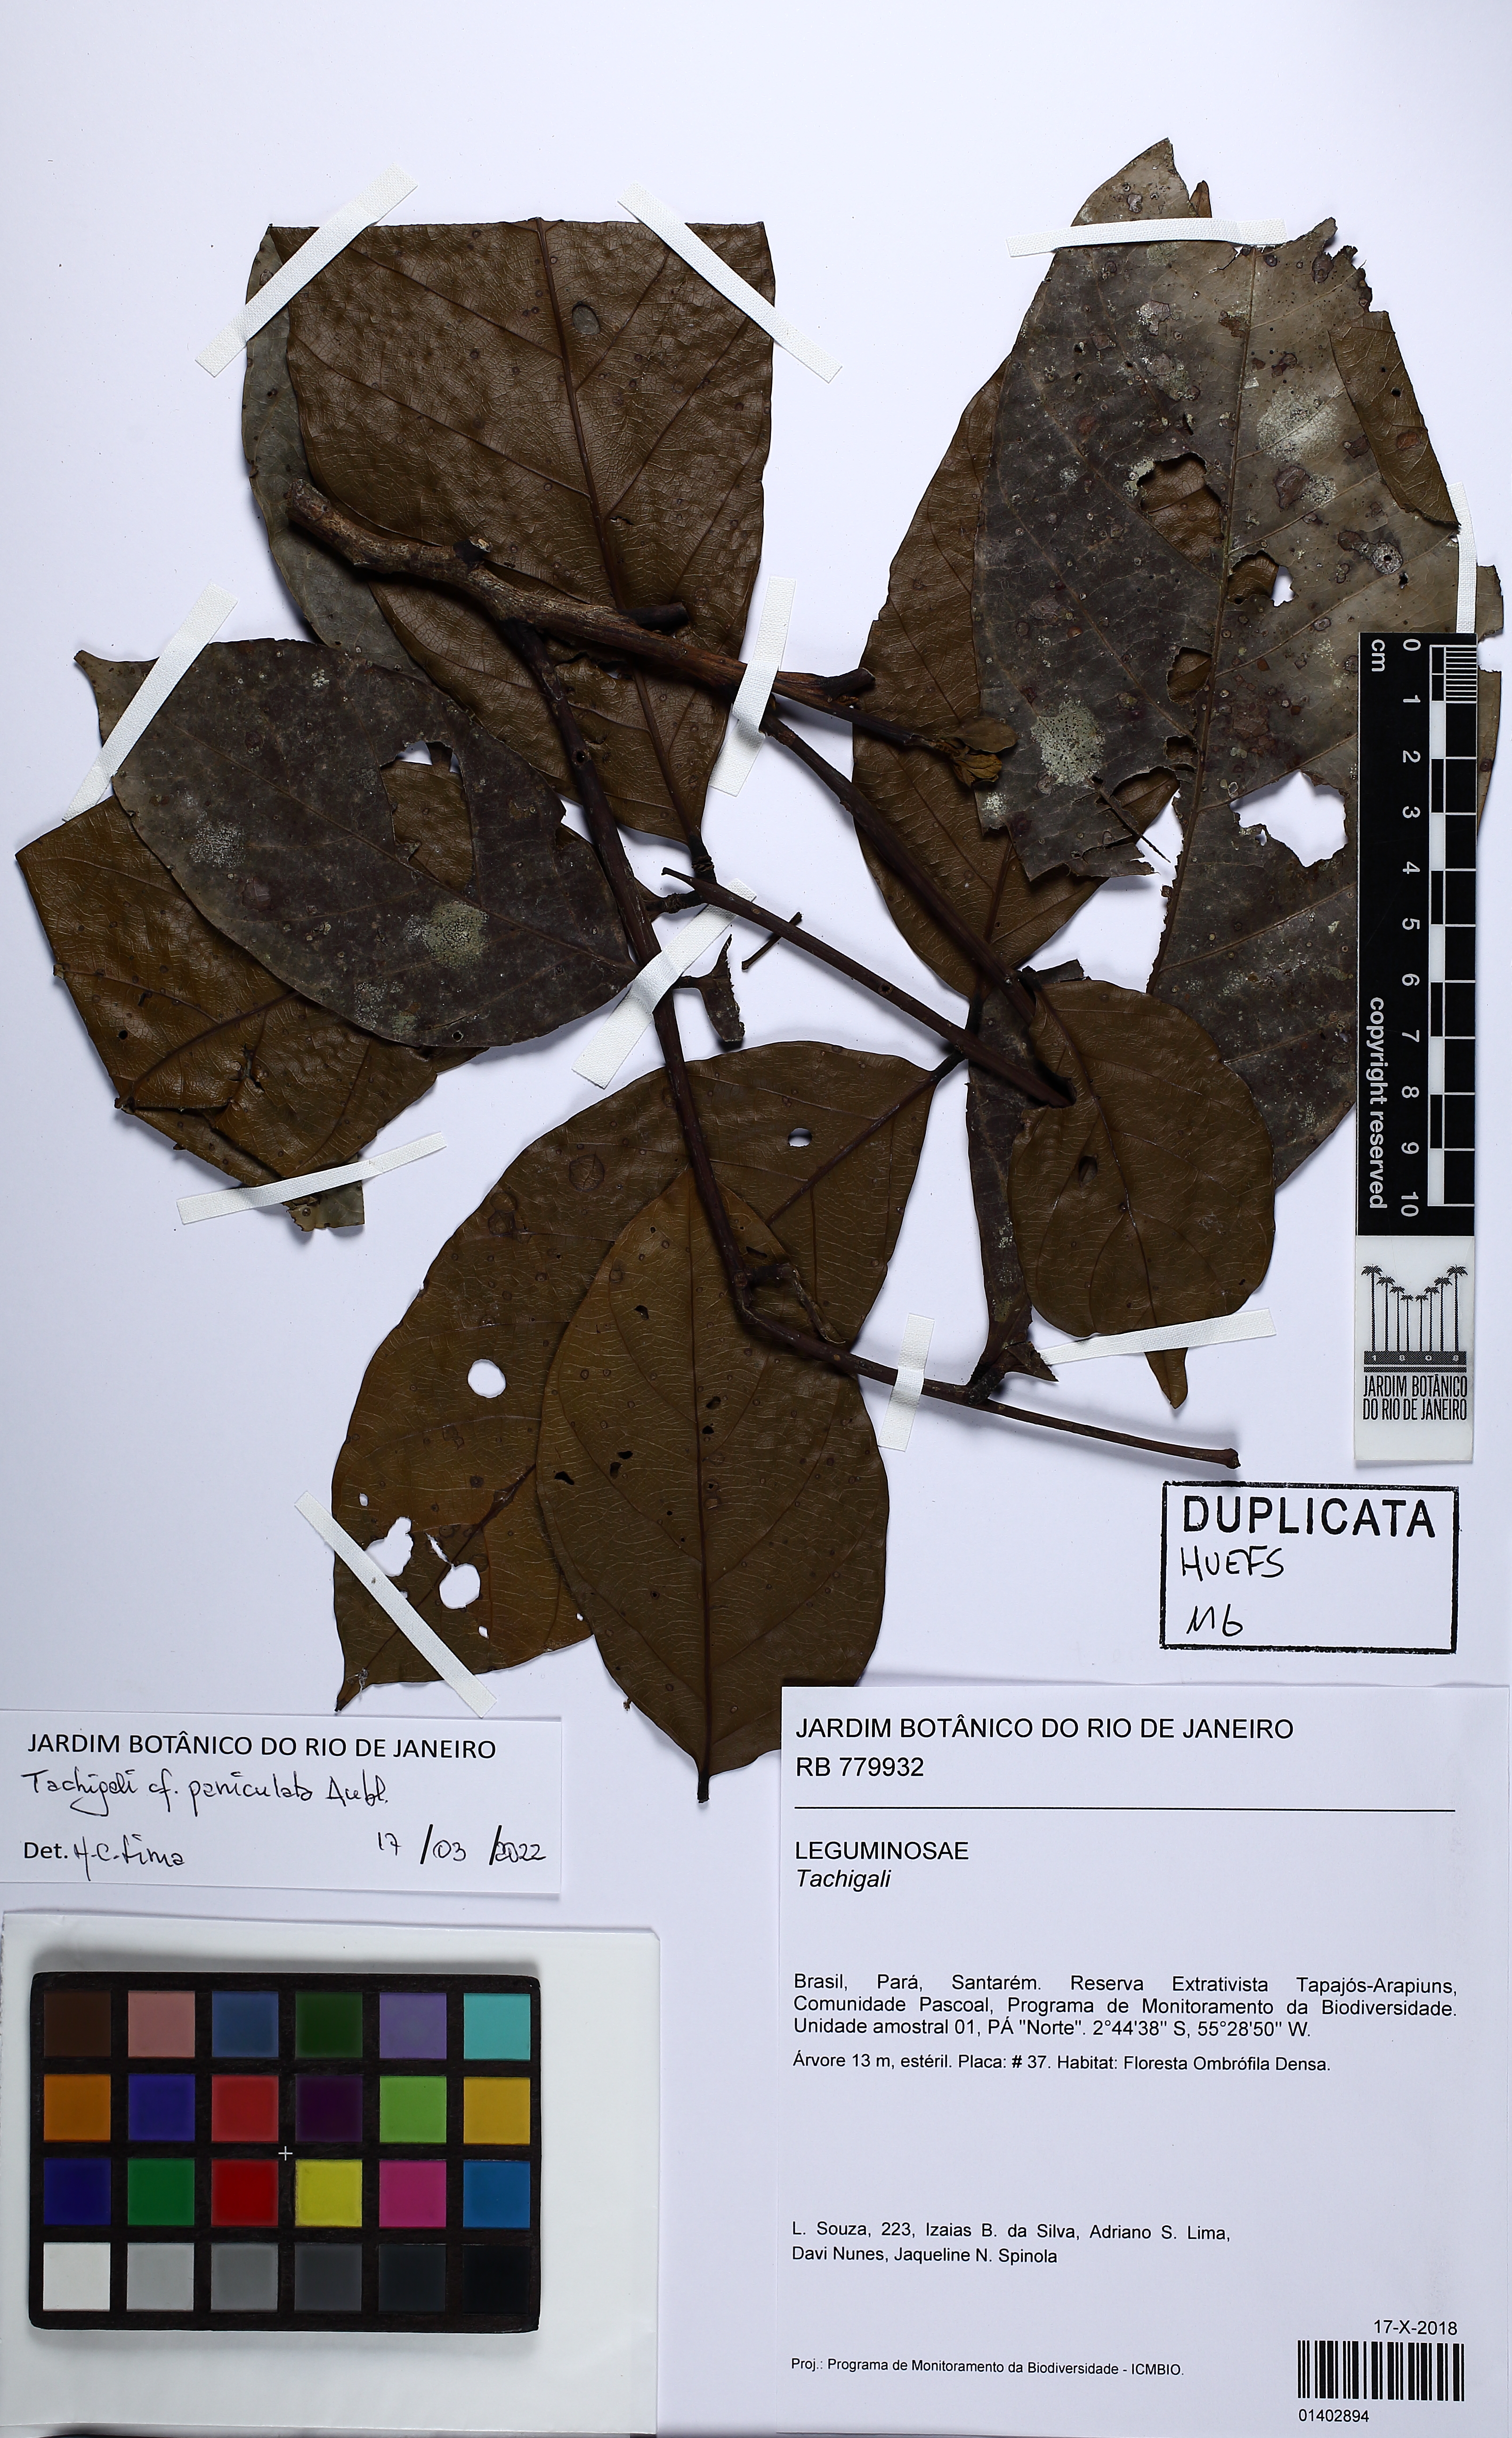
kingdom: Plantae
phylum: Tracheophyta
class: Magnoliopsida
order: Fabales
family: Fabaceae
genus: Tachigali
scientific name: Tachigali paniculata
